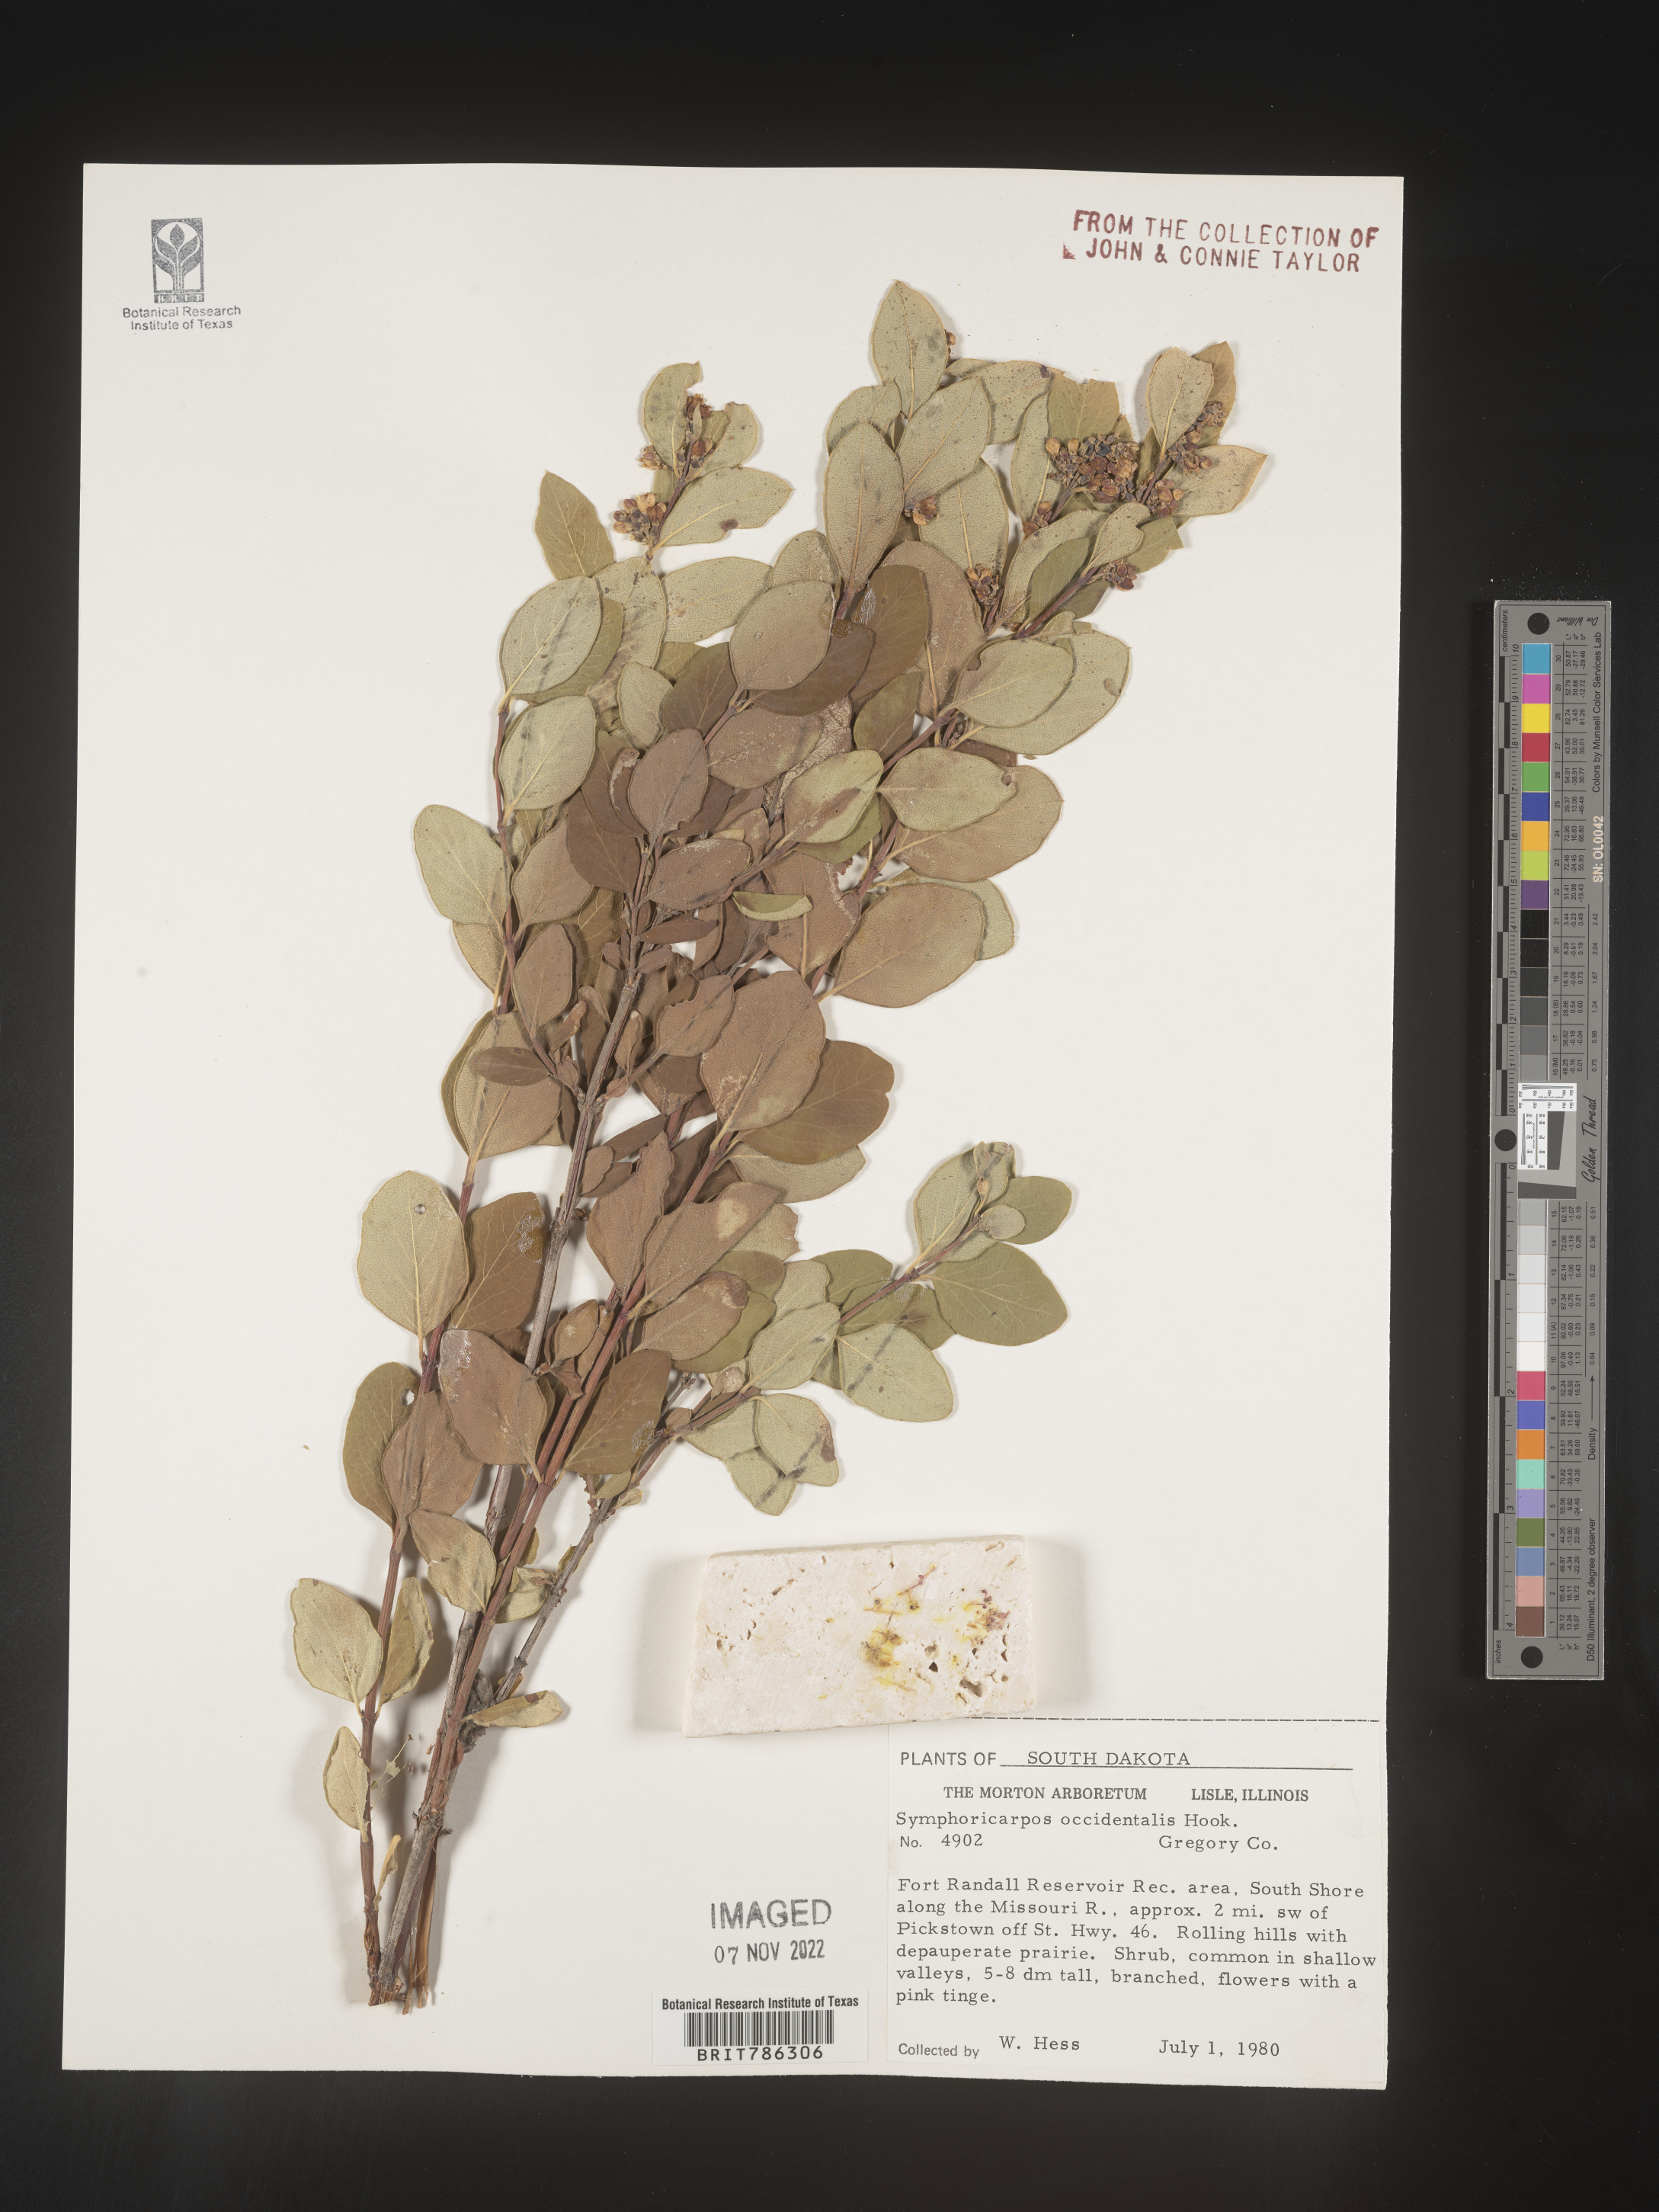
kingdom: Plantae
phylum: Tracheophyta
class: Magnoliopsida
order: Dipsacales
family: Caprifoliaceae
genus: Symphoricarpos
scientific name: Symphoricarpos occidentalis
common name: Wolfberry
